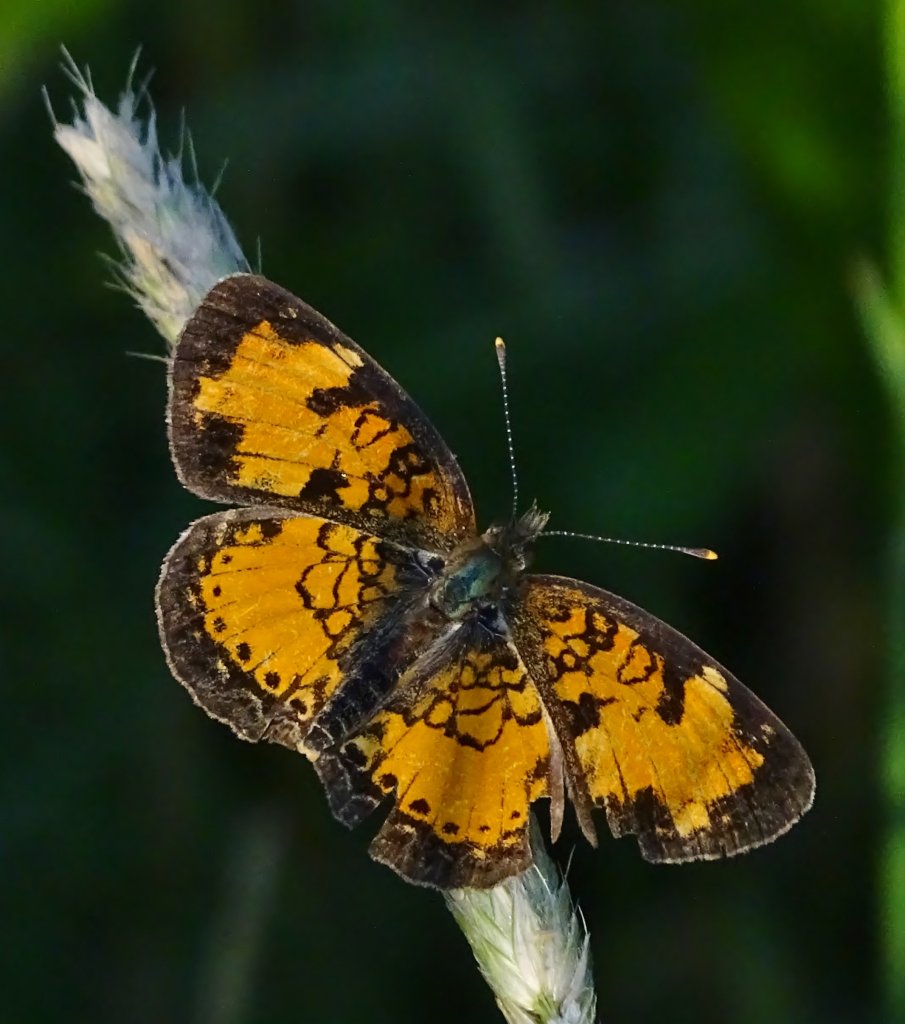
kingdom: Animalia
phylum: Arthropoda
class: Insecta
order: Lepidoptera
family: Nymphalidae
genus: Phyciodes
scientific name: Phyciodes
